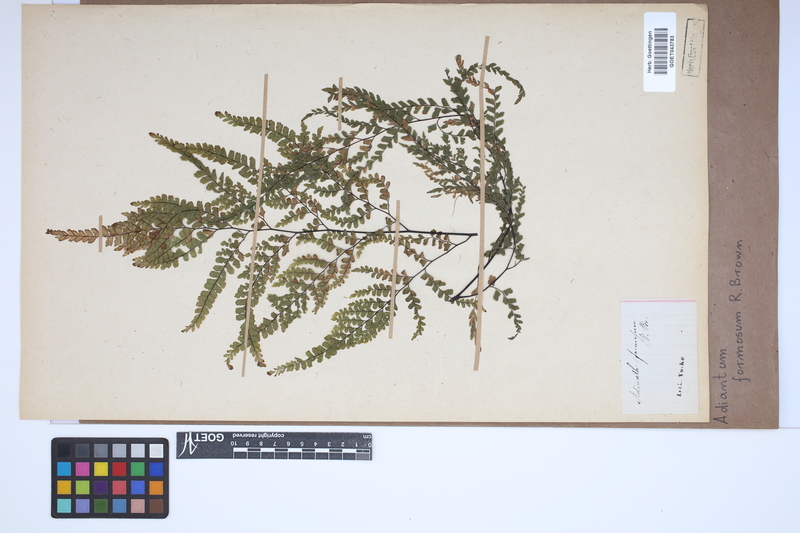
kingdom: Plantae
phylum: Tracheophyta
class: Polypodiopsida
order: Polypodiales
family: Pteridaceae
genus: Adiantum
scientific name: Adiantum formosum
